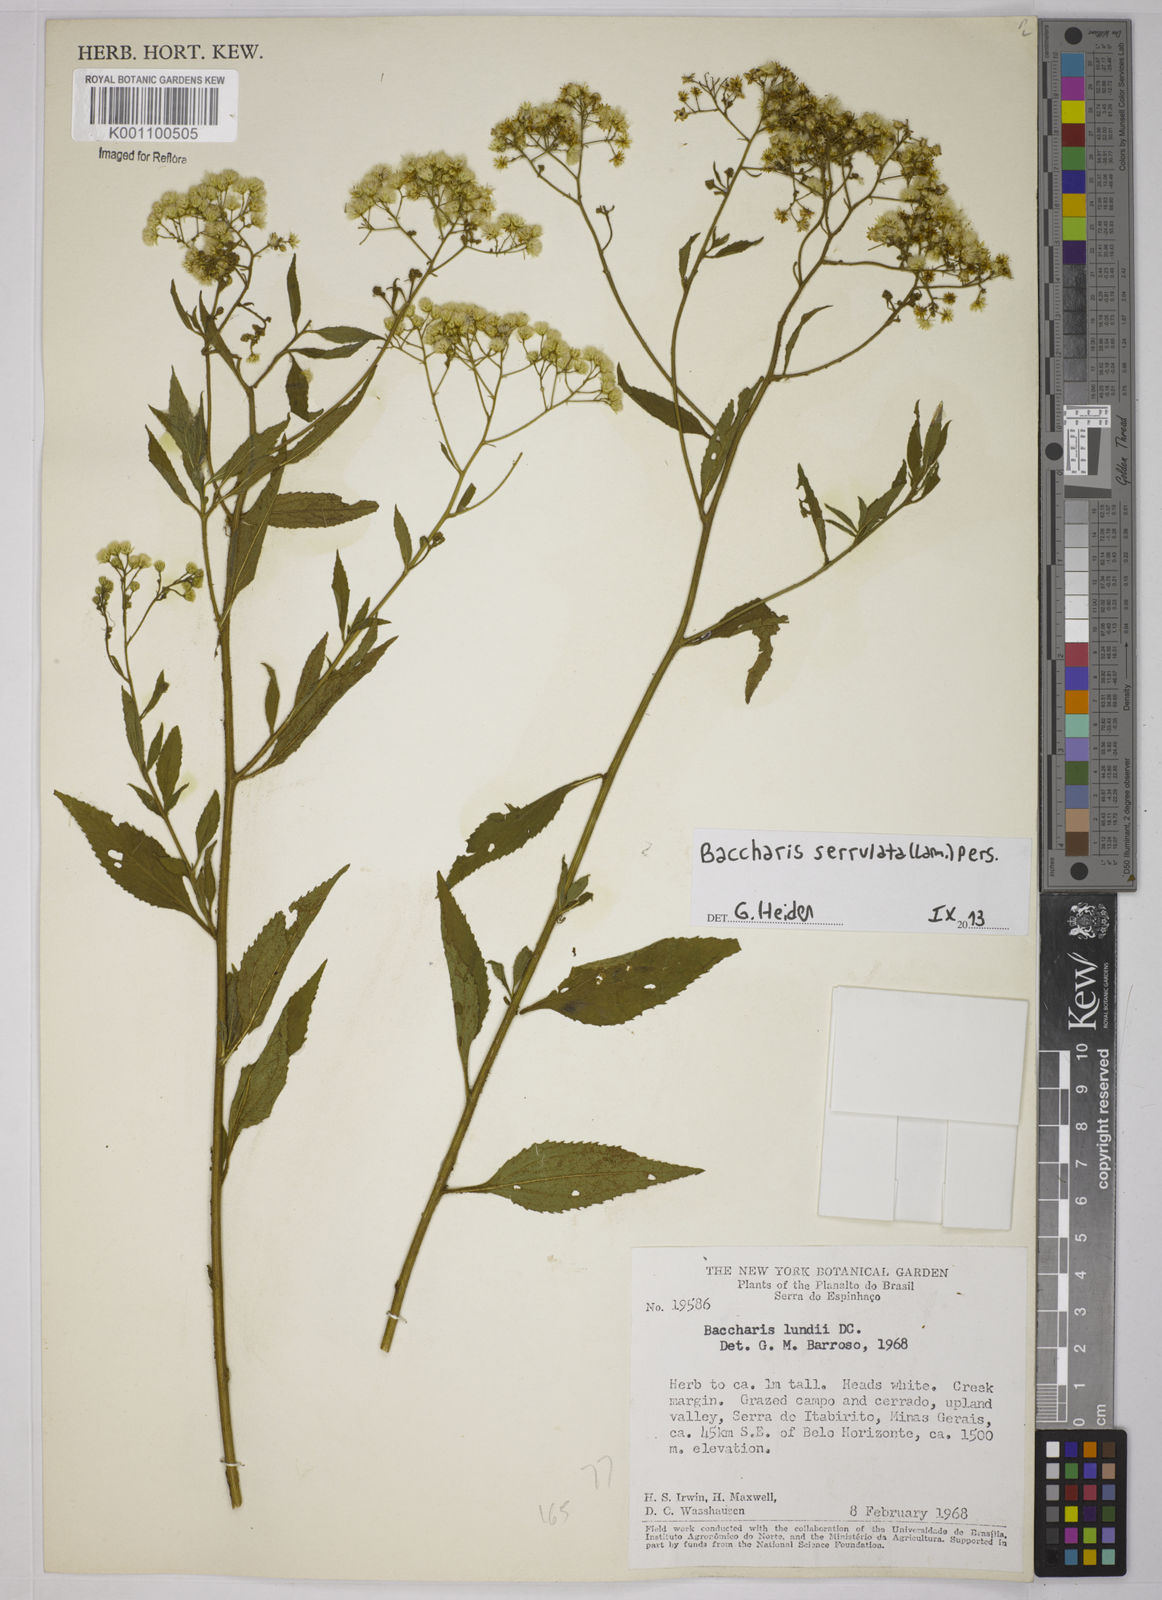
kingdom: Plantae
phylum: Tracheophyta
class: Magnoliopsida
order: Asterales
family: Asteraceae
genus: Baccharis
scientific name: Baccharis serrulata
